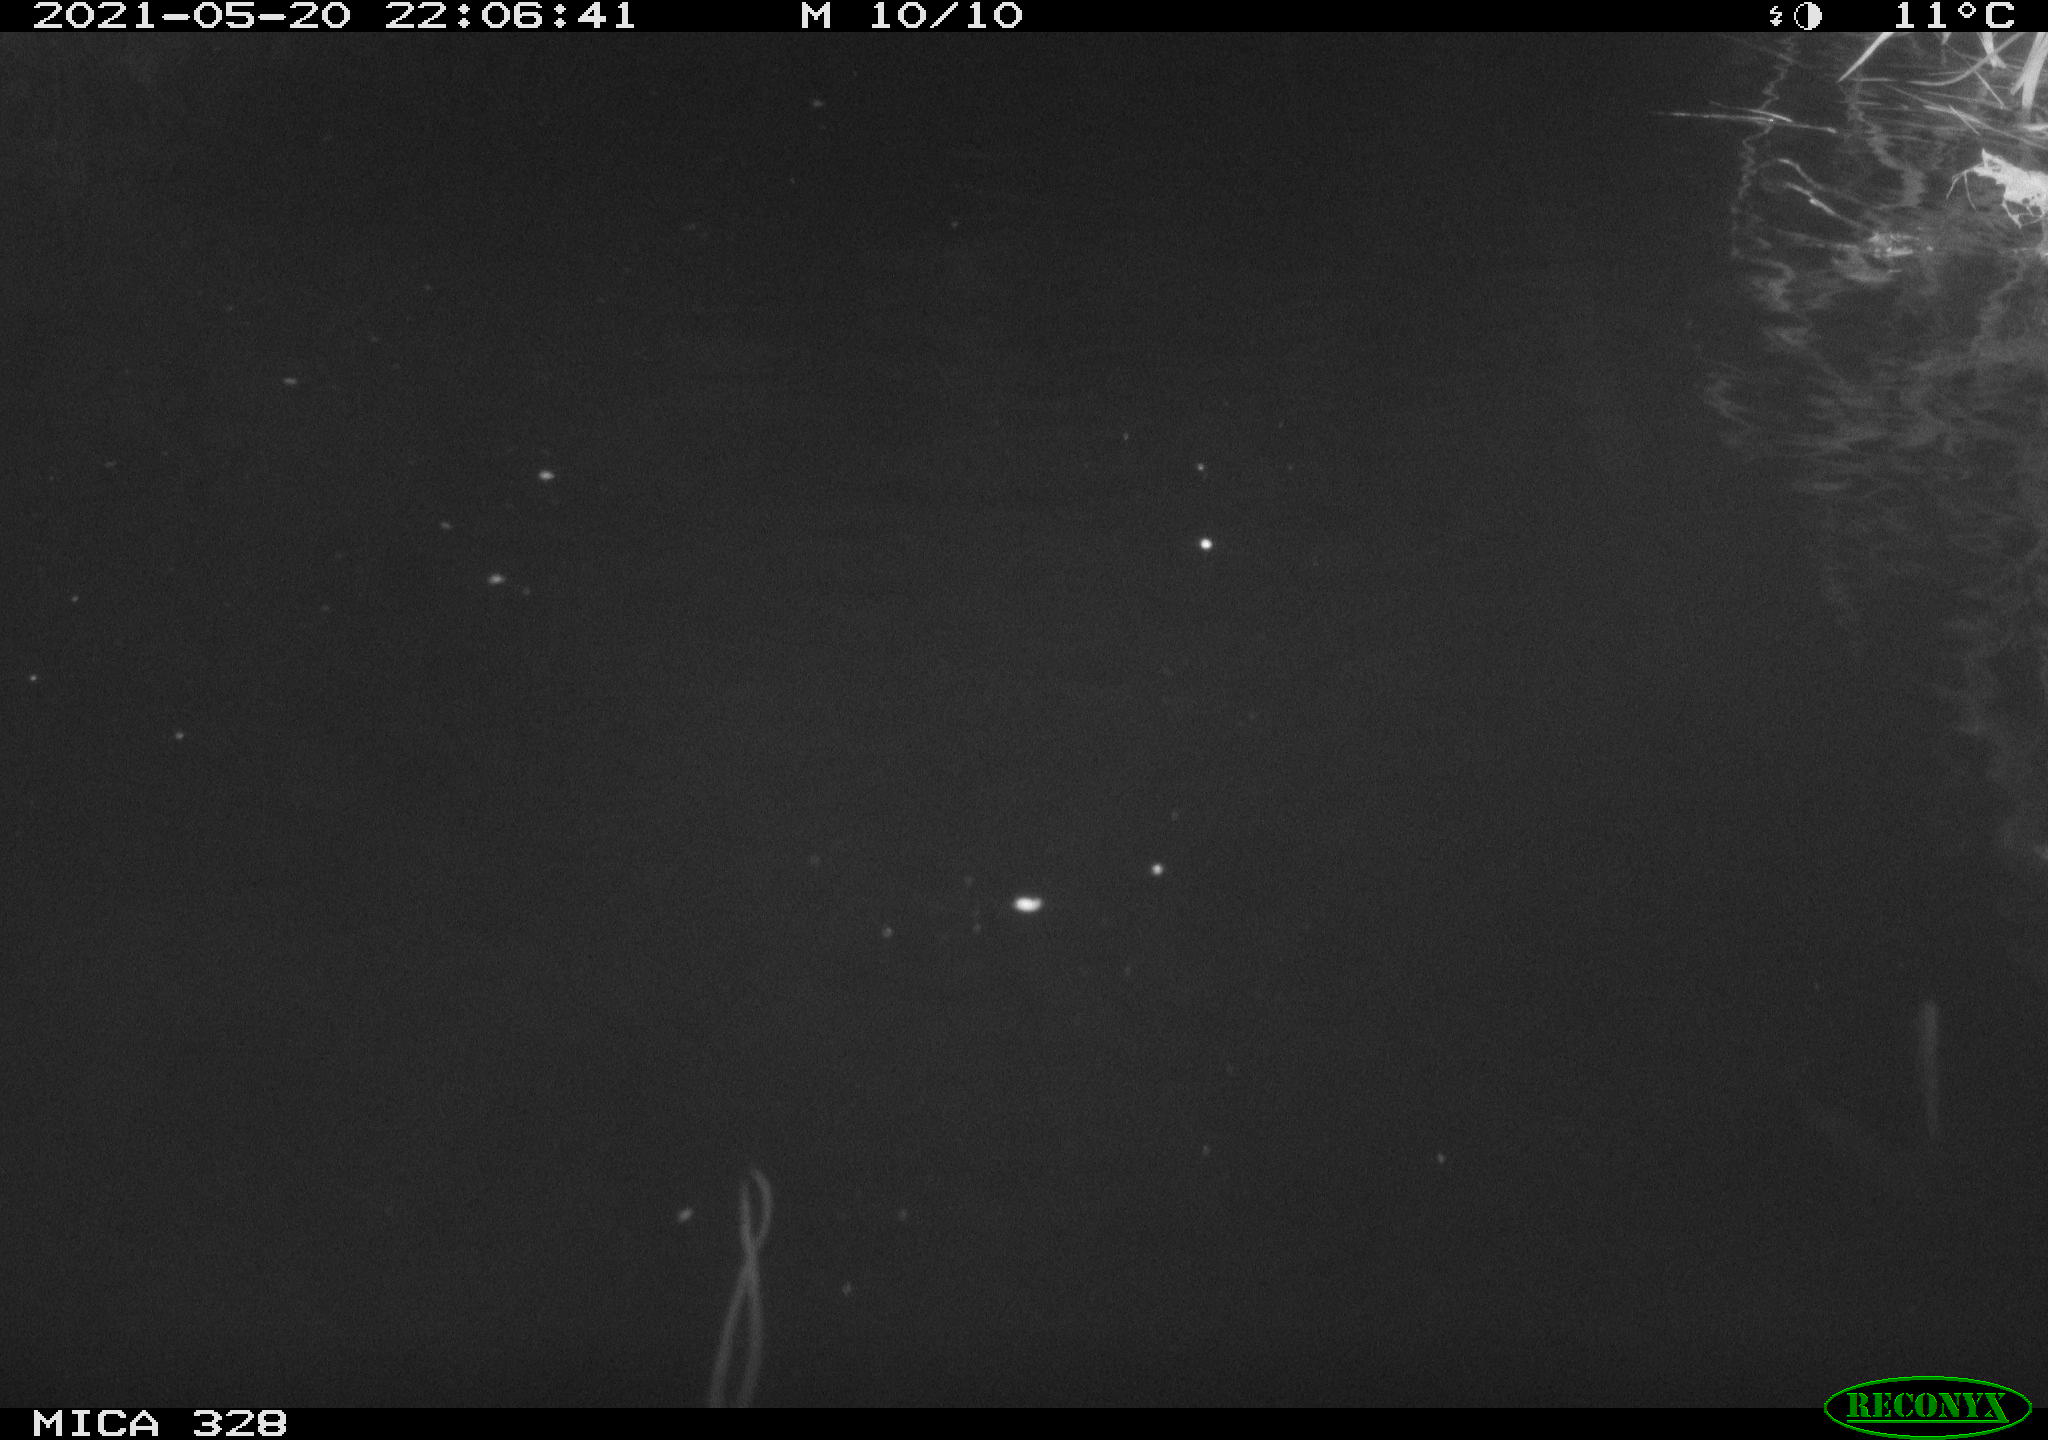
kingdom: Animalia
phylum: Chordata
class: Mammalia
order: Rodentia
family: Cricetidae
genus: Ondatra
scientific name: Ondatra zibethicus
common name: Muskrat
